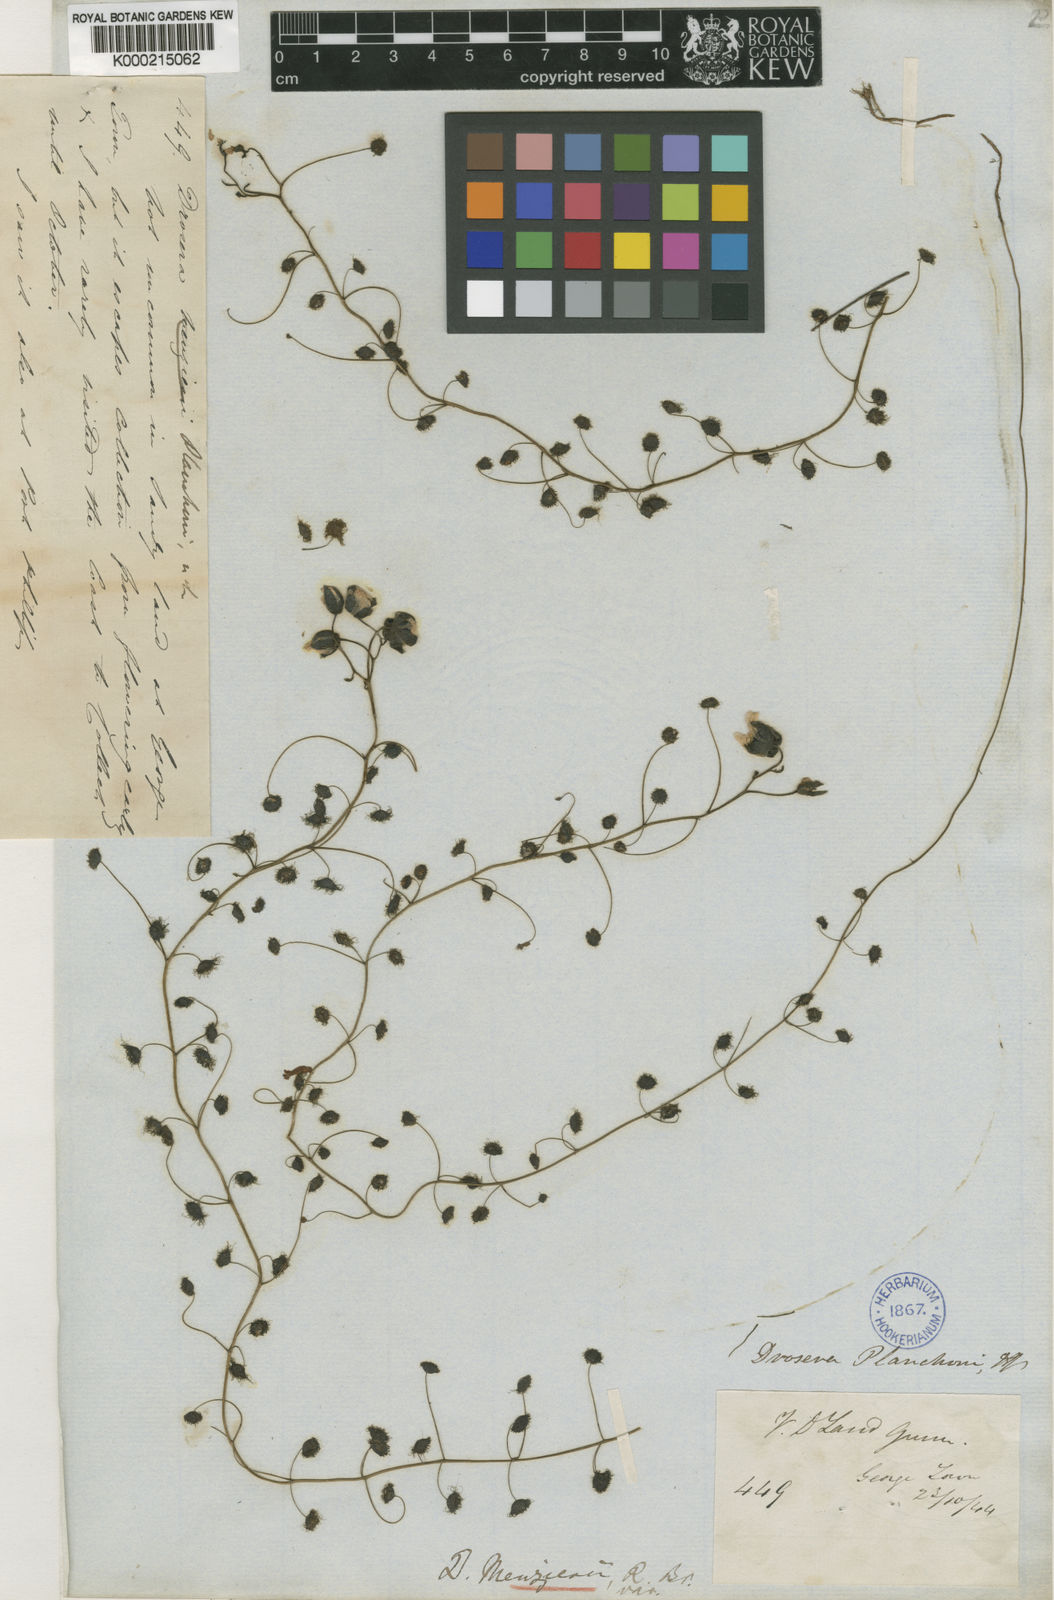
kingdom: Plantae
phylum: Tracheophyta
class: Magnoliopsida
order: Caryophyllales
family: Droseraceae
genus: Drosera
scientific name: Drosera macrantha
